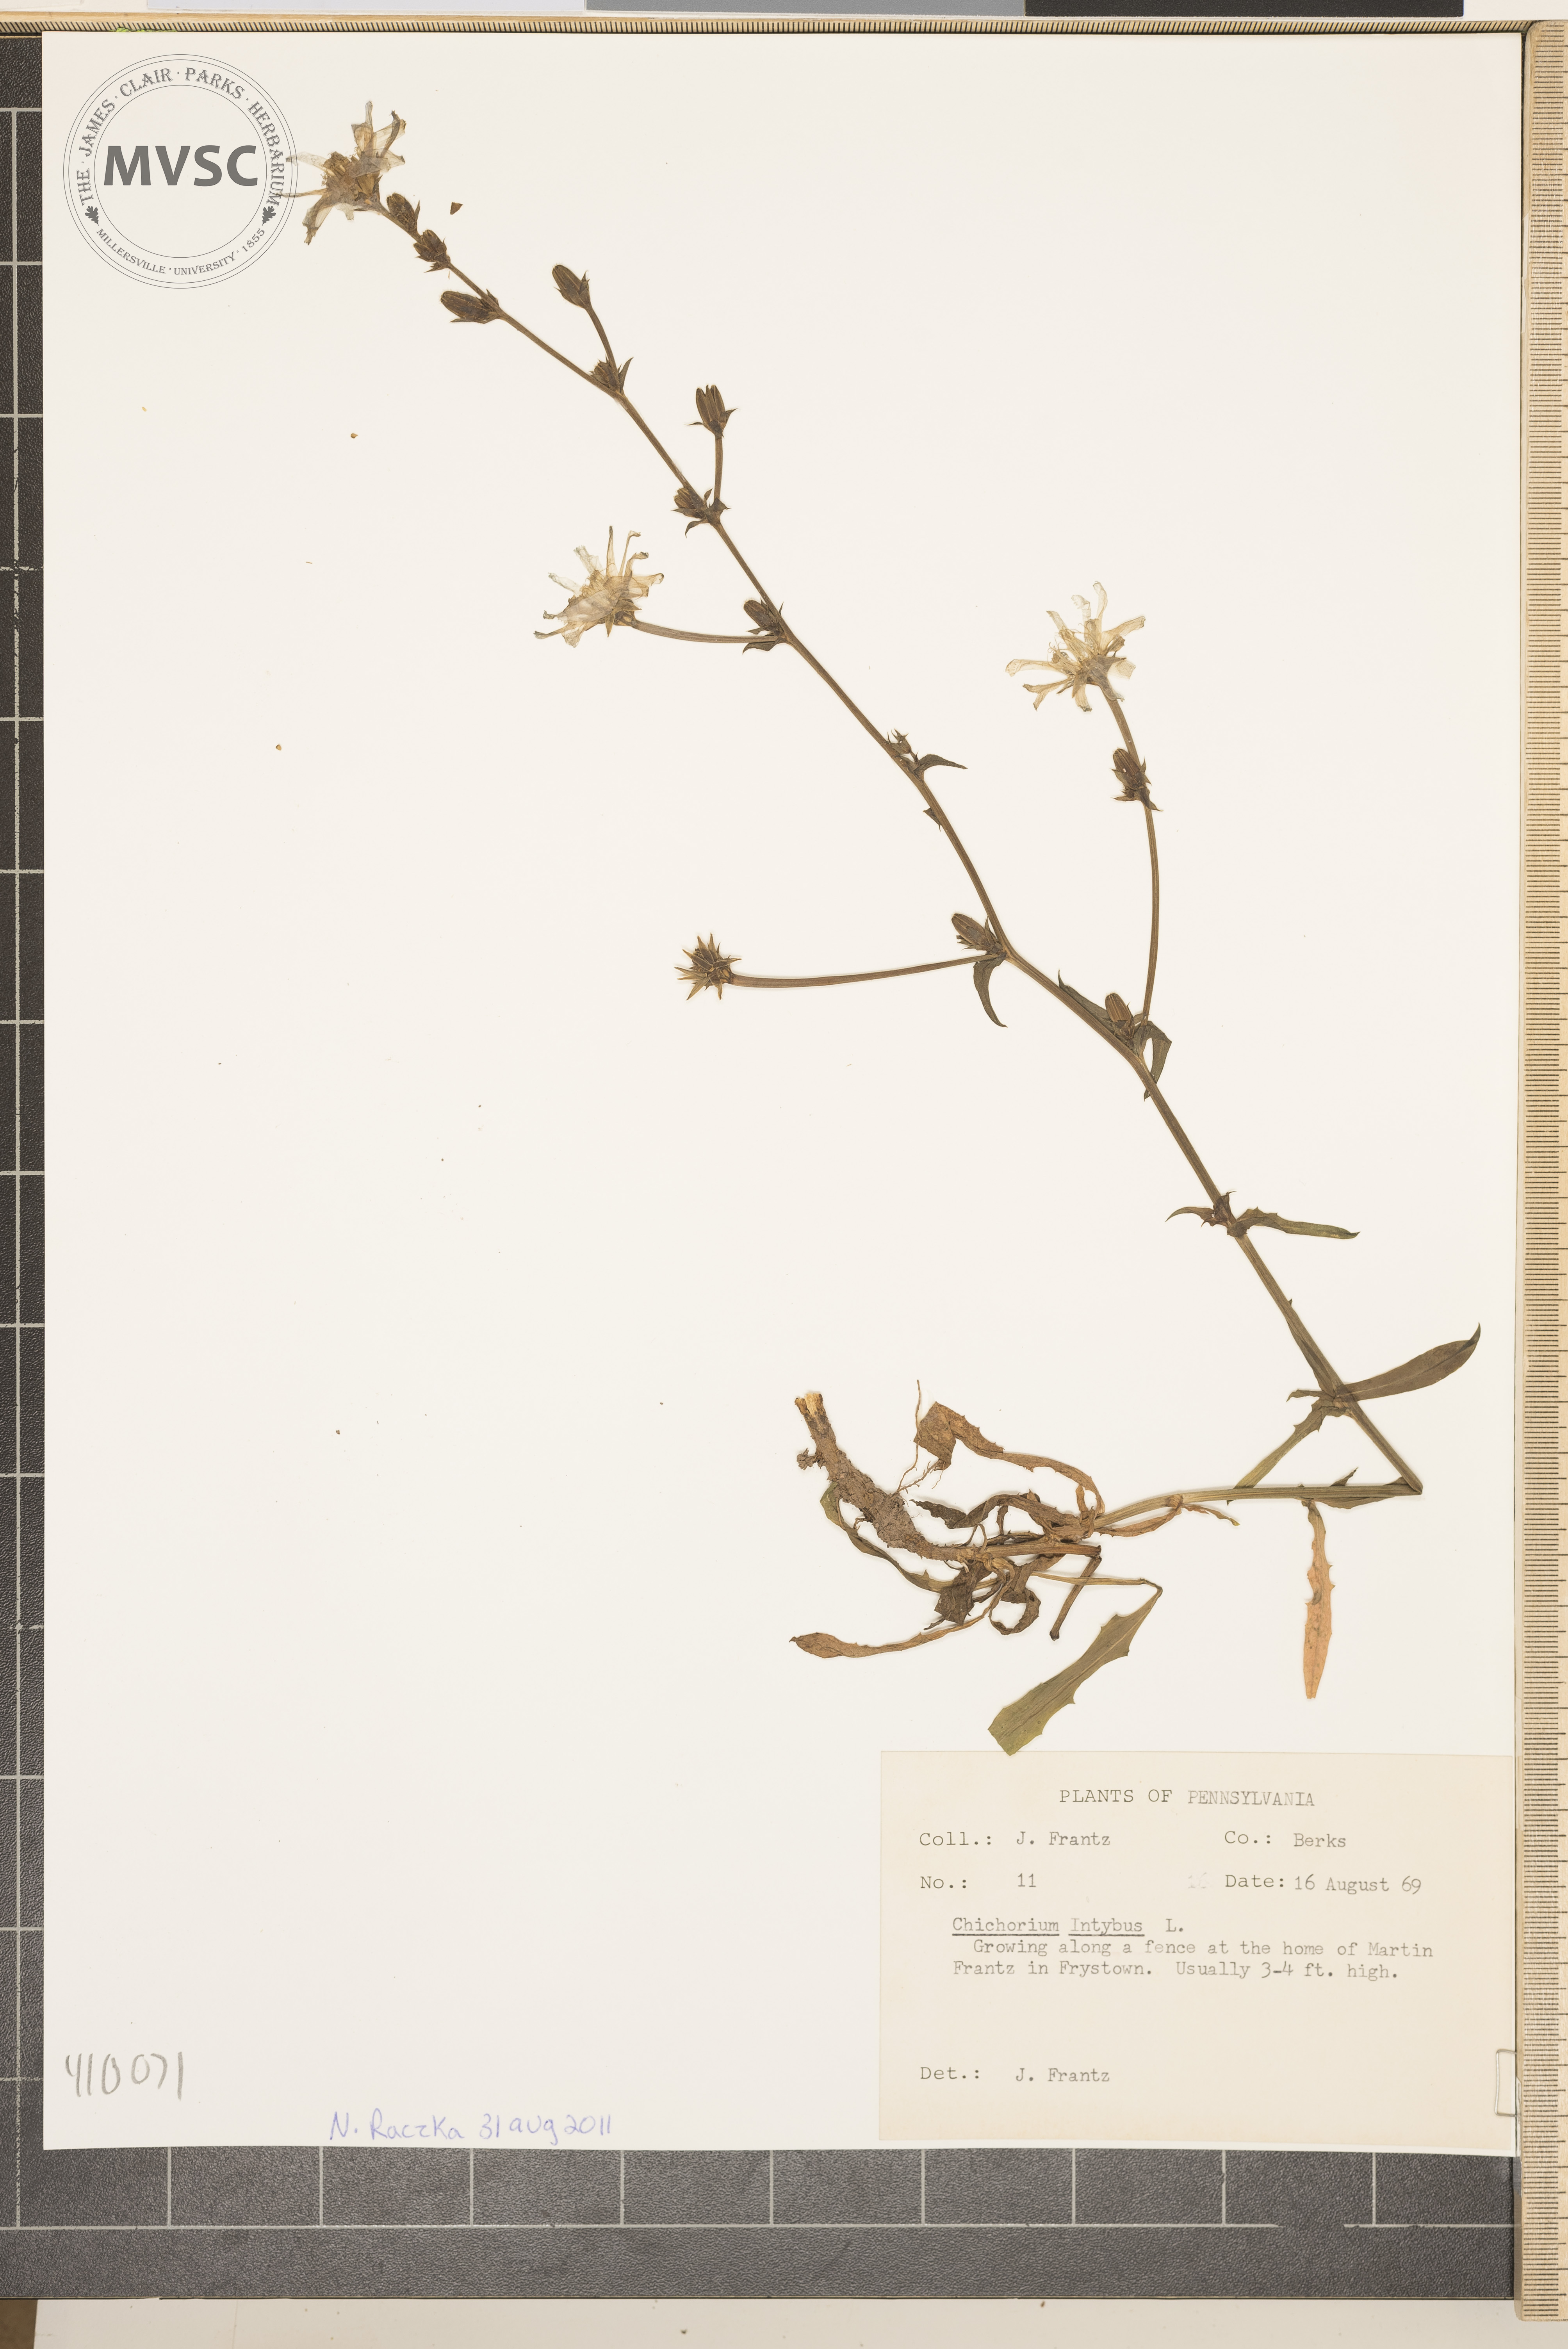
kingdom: Plantae
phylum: Tracheophyta
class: Magnoliopsida
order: Asterales
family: Asteraceae
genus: Cichorium
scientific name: Cichorium intybus
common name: Chicory
